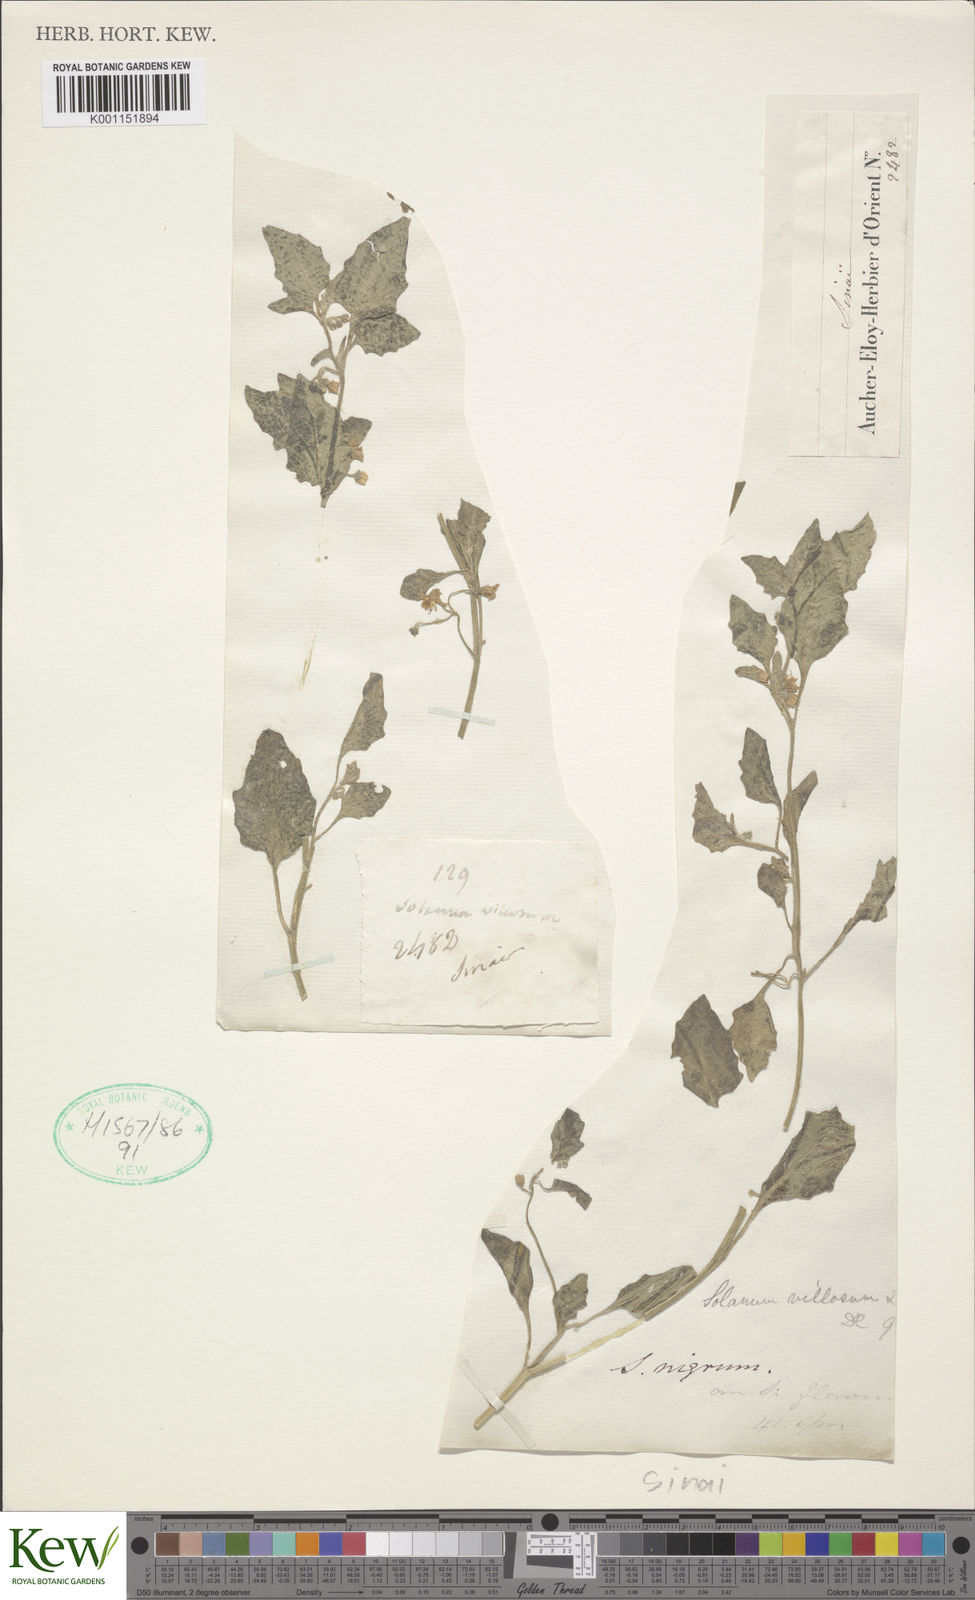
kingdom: Plantae
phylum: Tracheophyta
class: Magnoliopsida
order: Solanales
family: Solanaceae
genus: Solanum
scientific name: Solanum villosum
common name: Red nightshade
